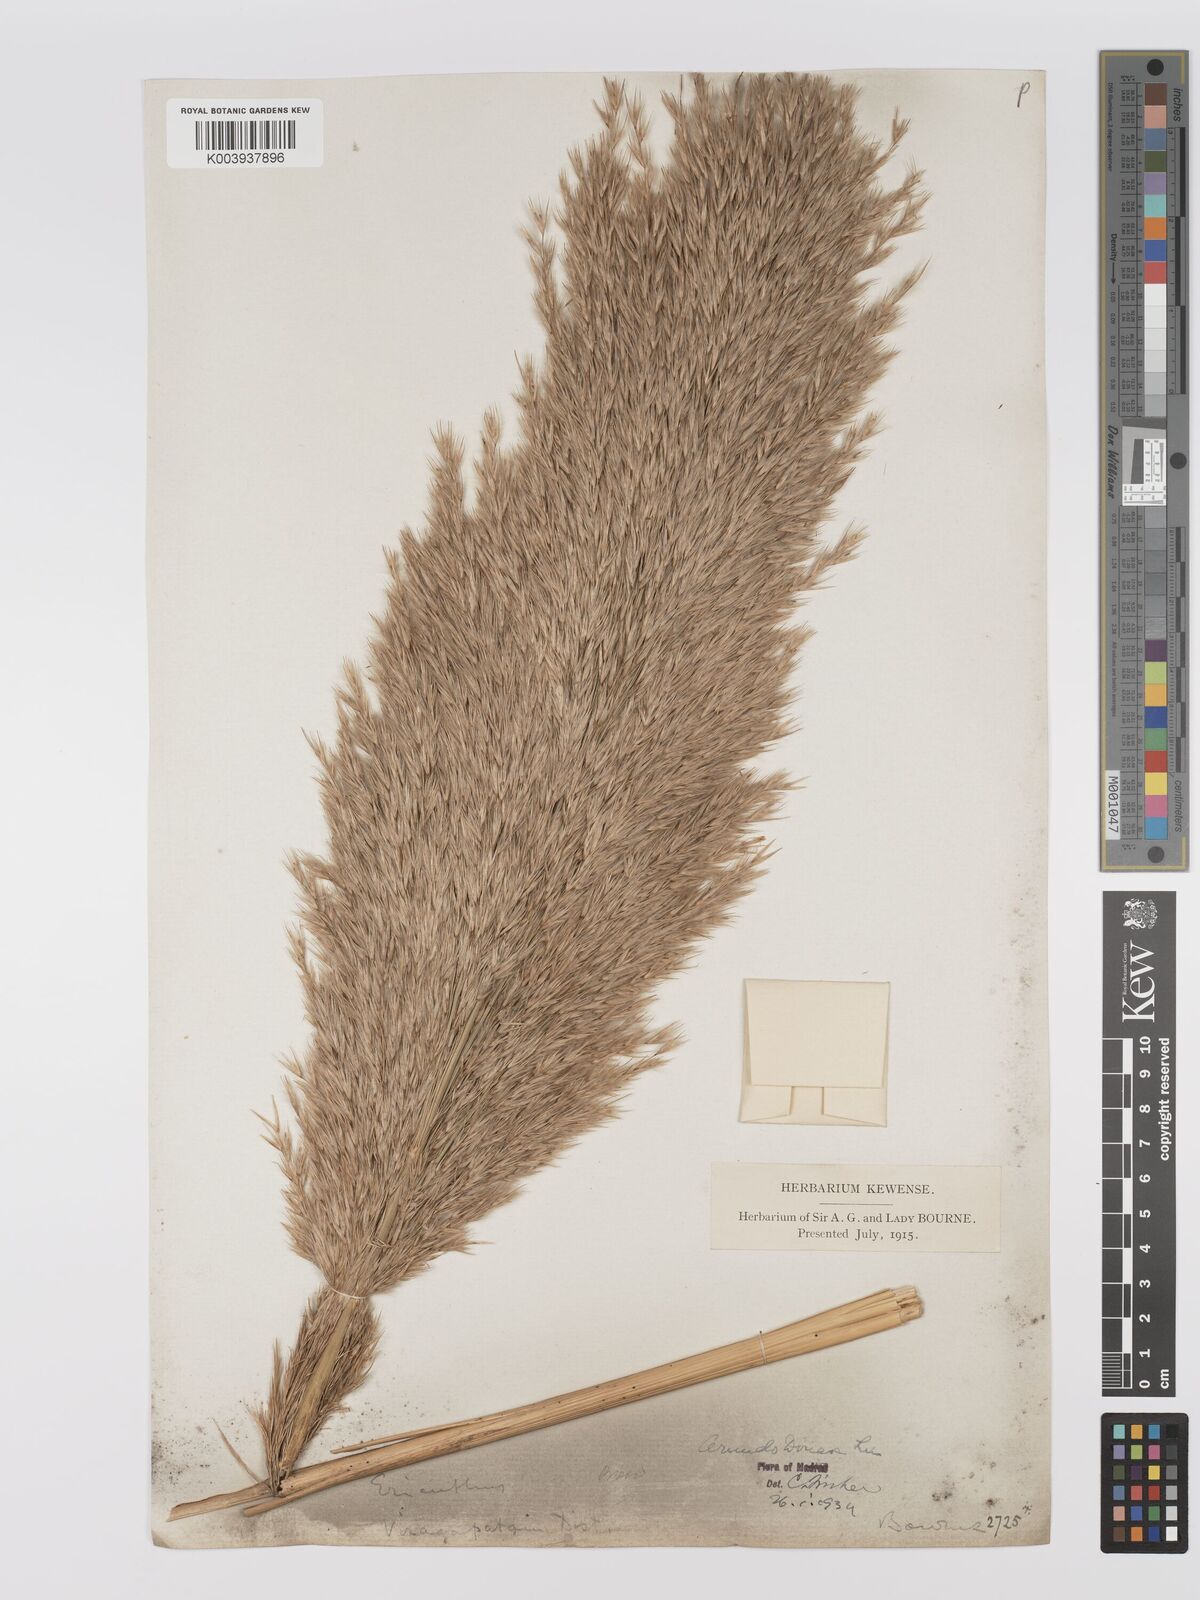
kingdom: Plantae
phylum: Tracheophyta
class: Liliopsida
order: Poales
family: Poaceae
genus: Arundo
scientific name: Arundo
